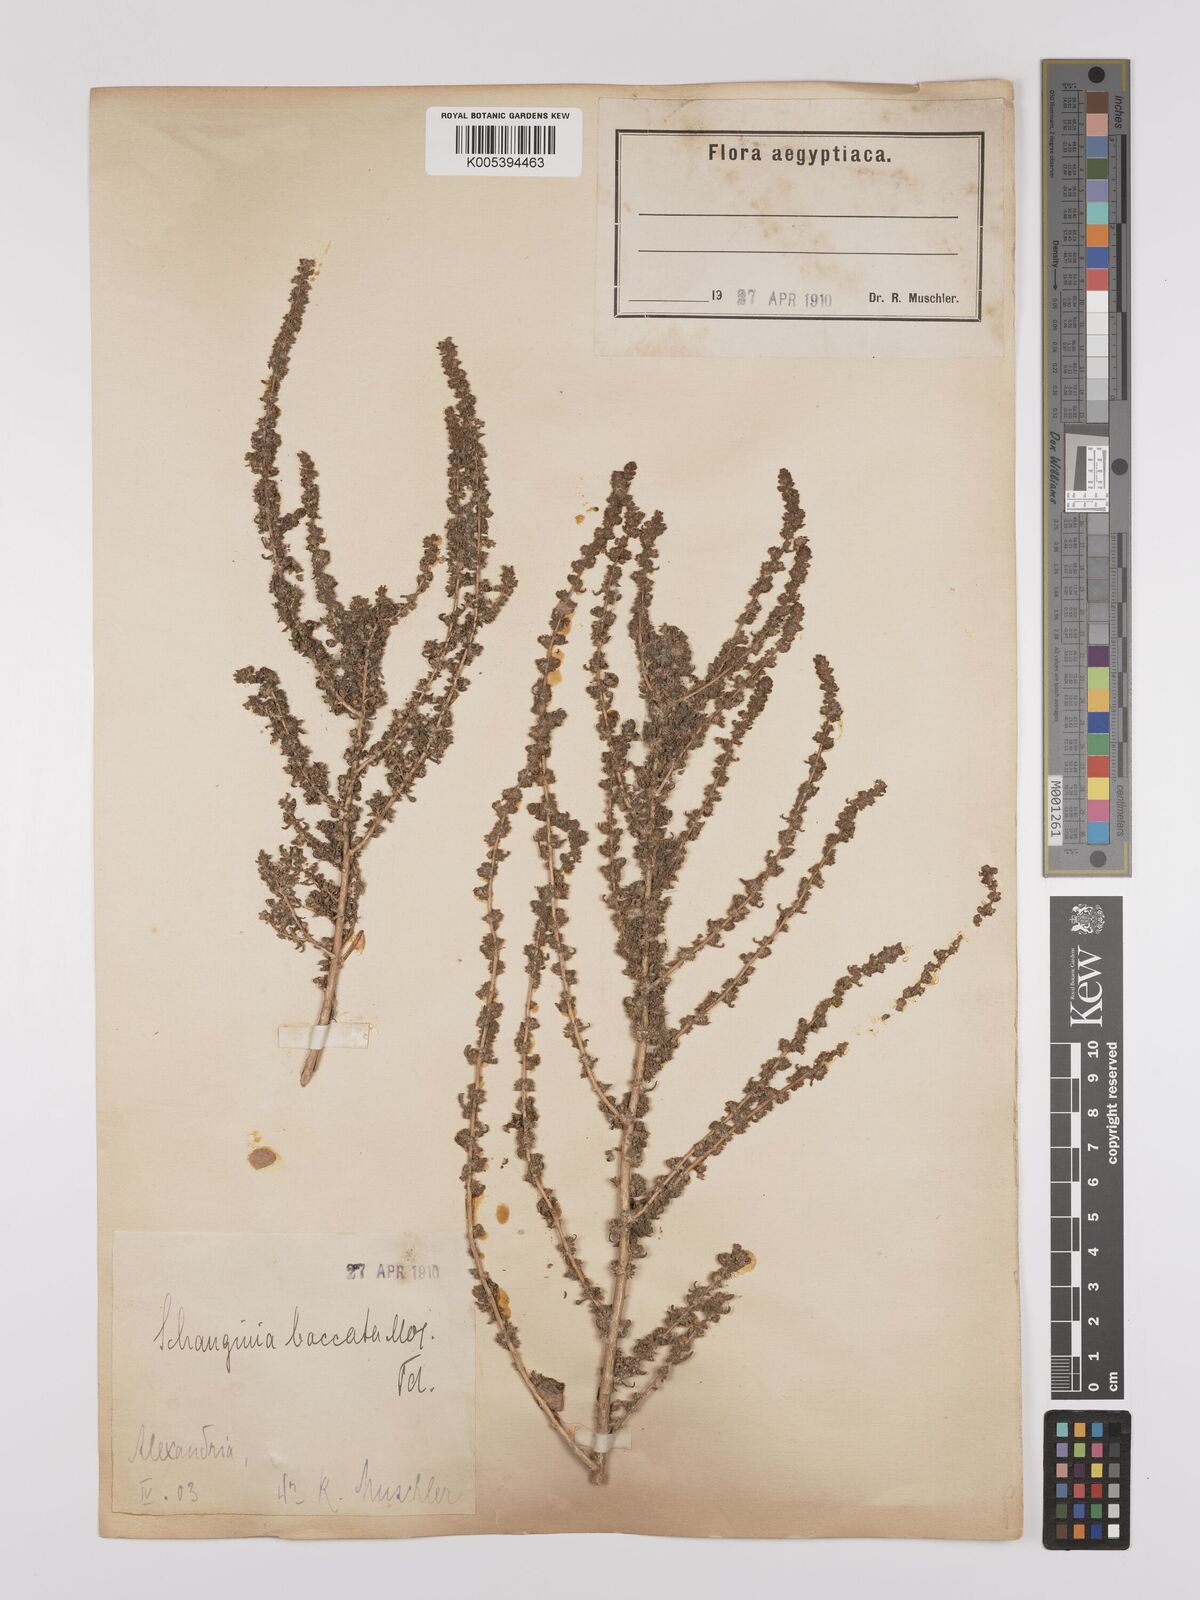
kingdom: Plantae
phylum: Tracheophyta
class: Magnoliopsida
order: Caryophyllales
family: Amaranthaceae
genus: Suaeda
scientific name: Suaeda aegyptiaca
